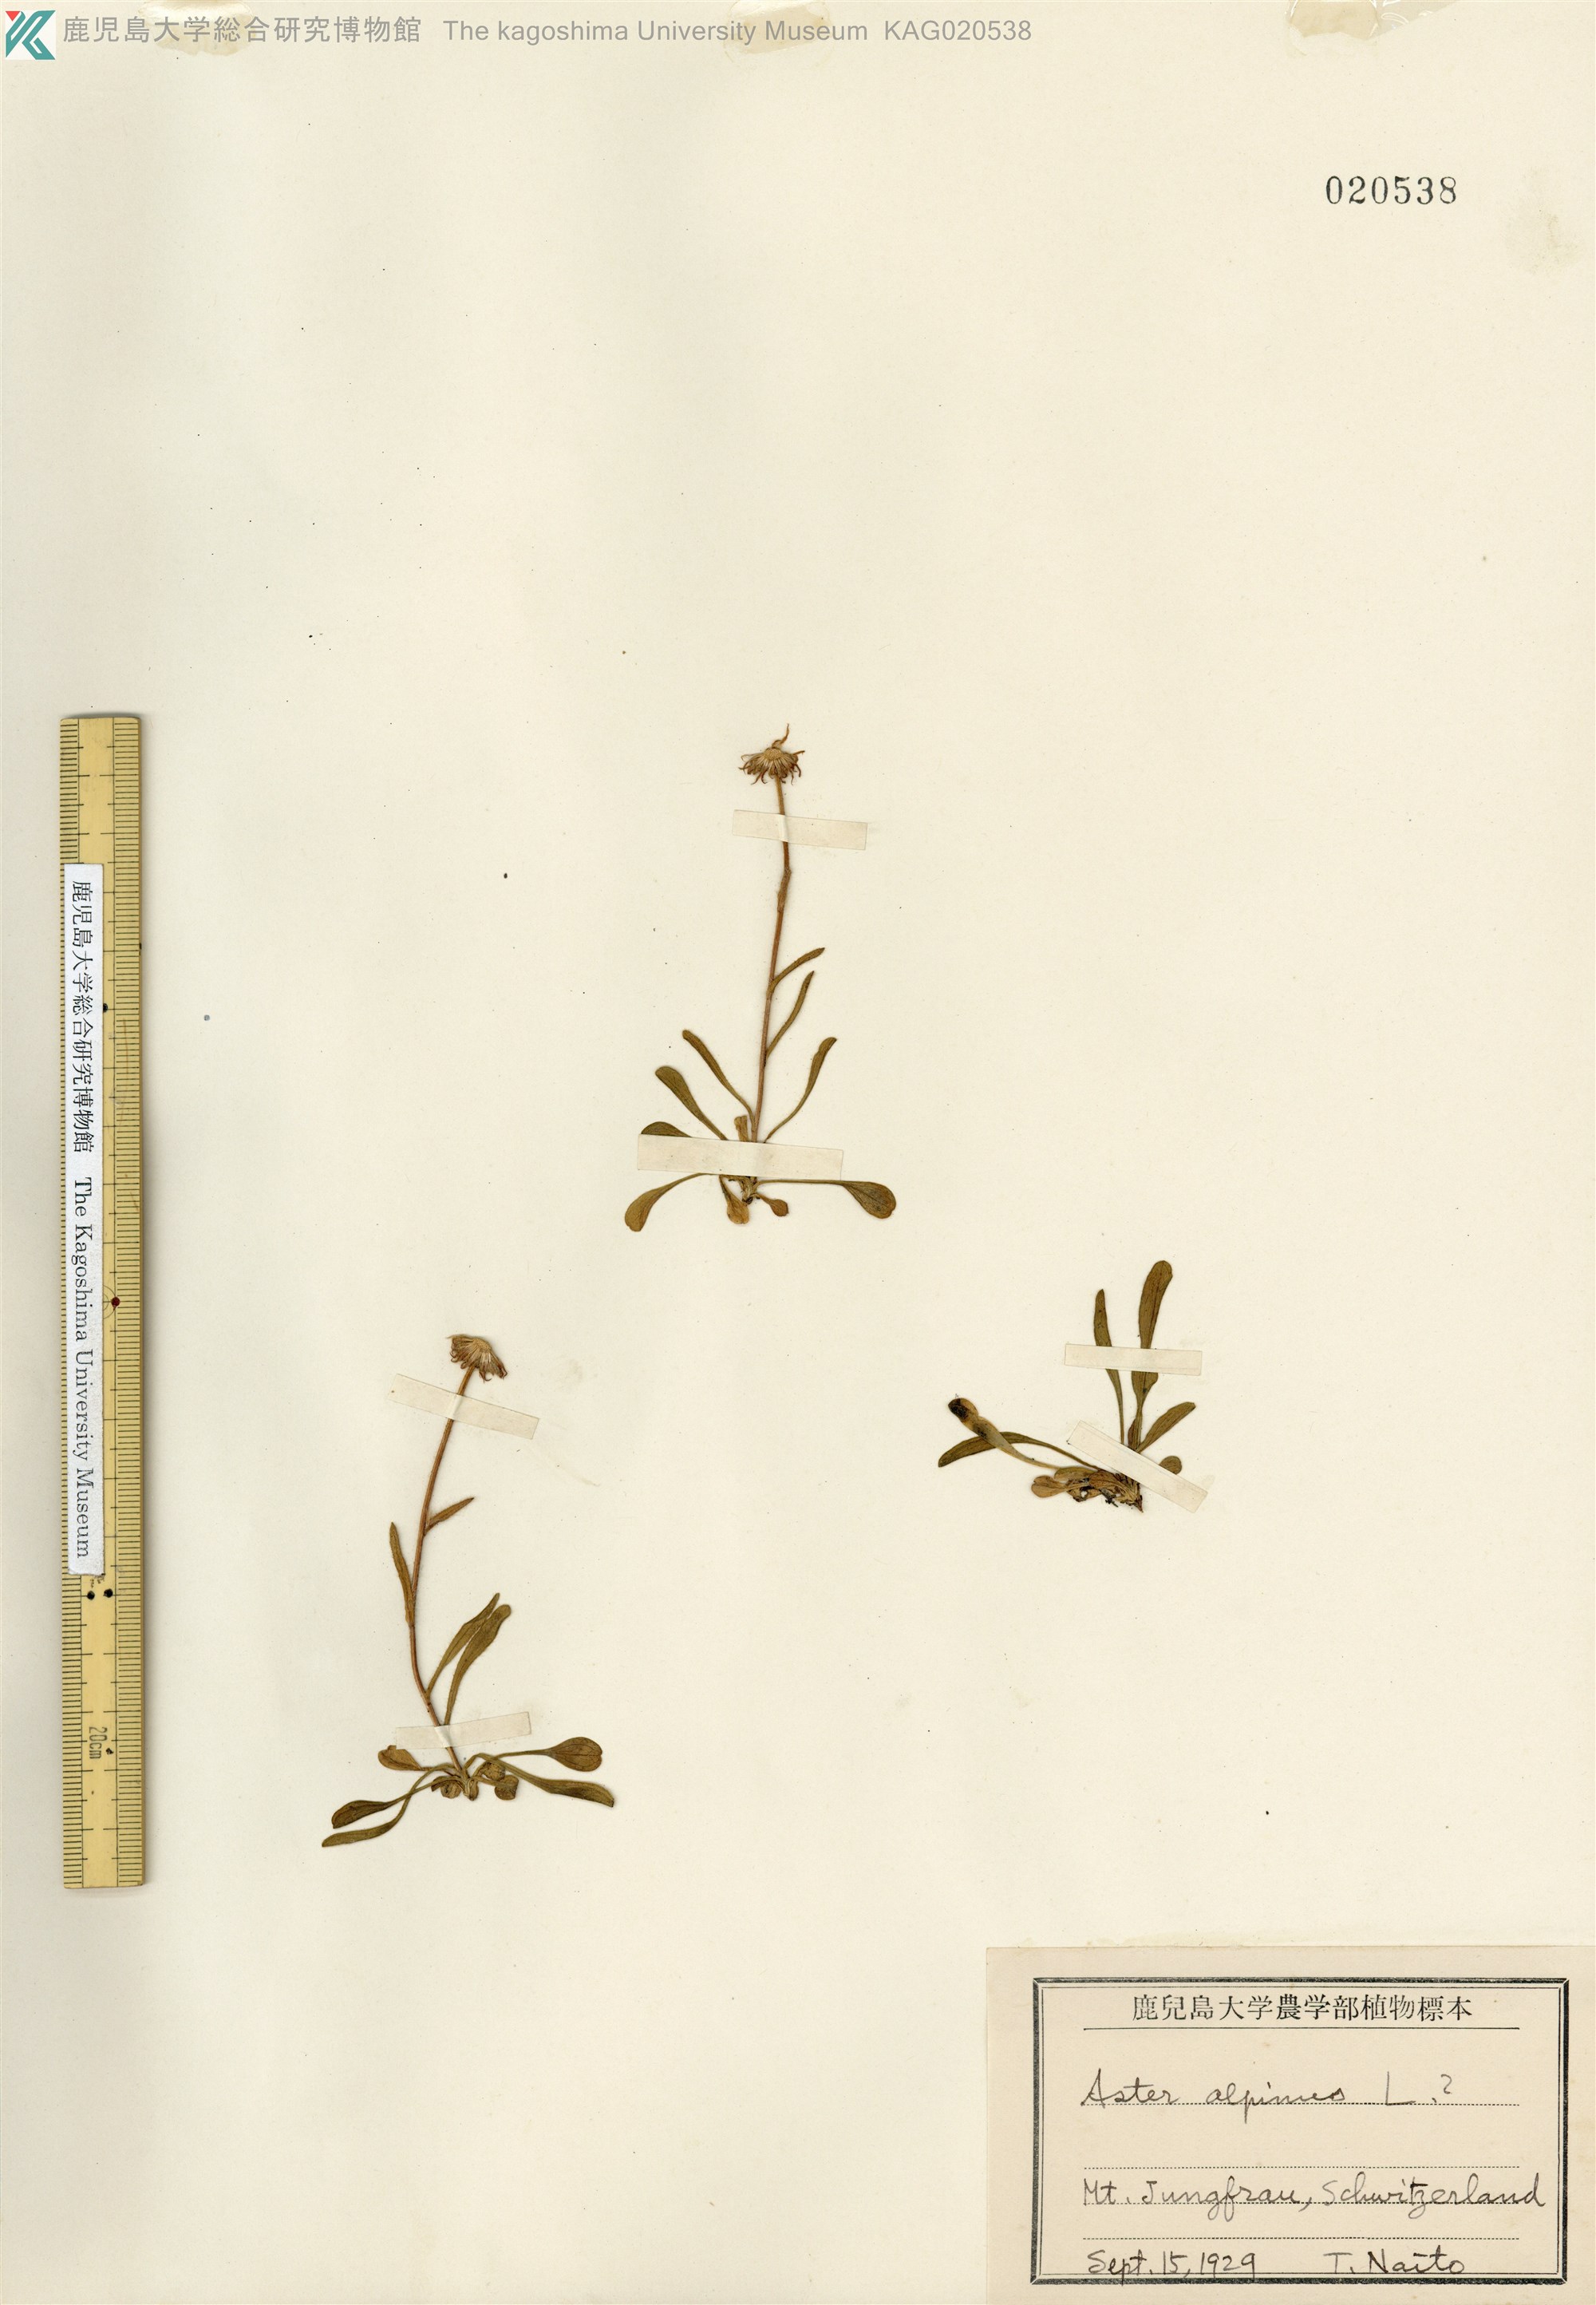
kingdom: Plantae
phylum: Tracheophyta
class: Magnoliopsida
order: Asterales
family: Asteraceae
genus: Aster
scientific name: Aster alpinus
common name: Alpine aster
